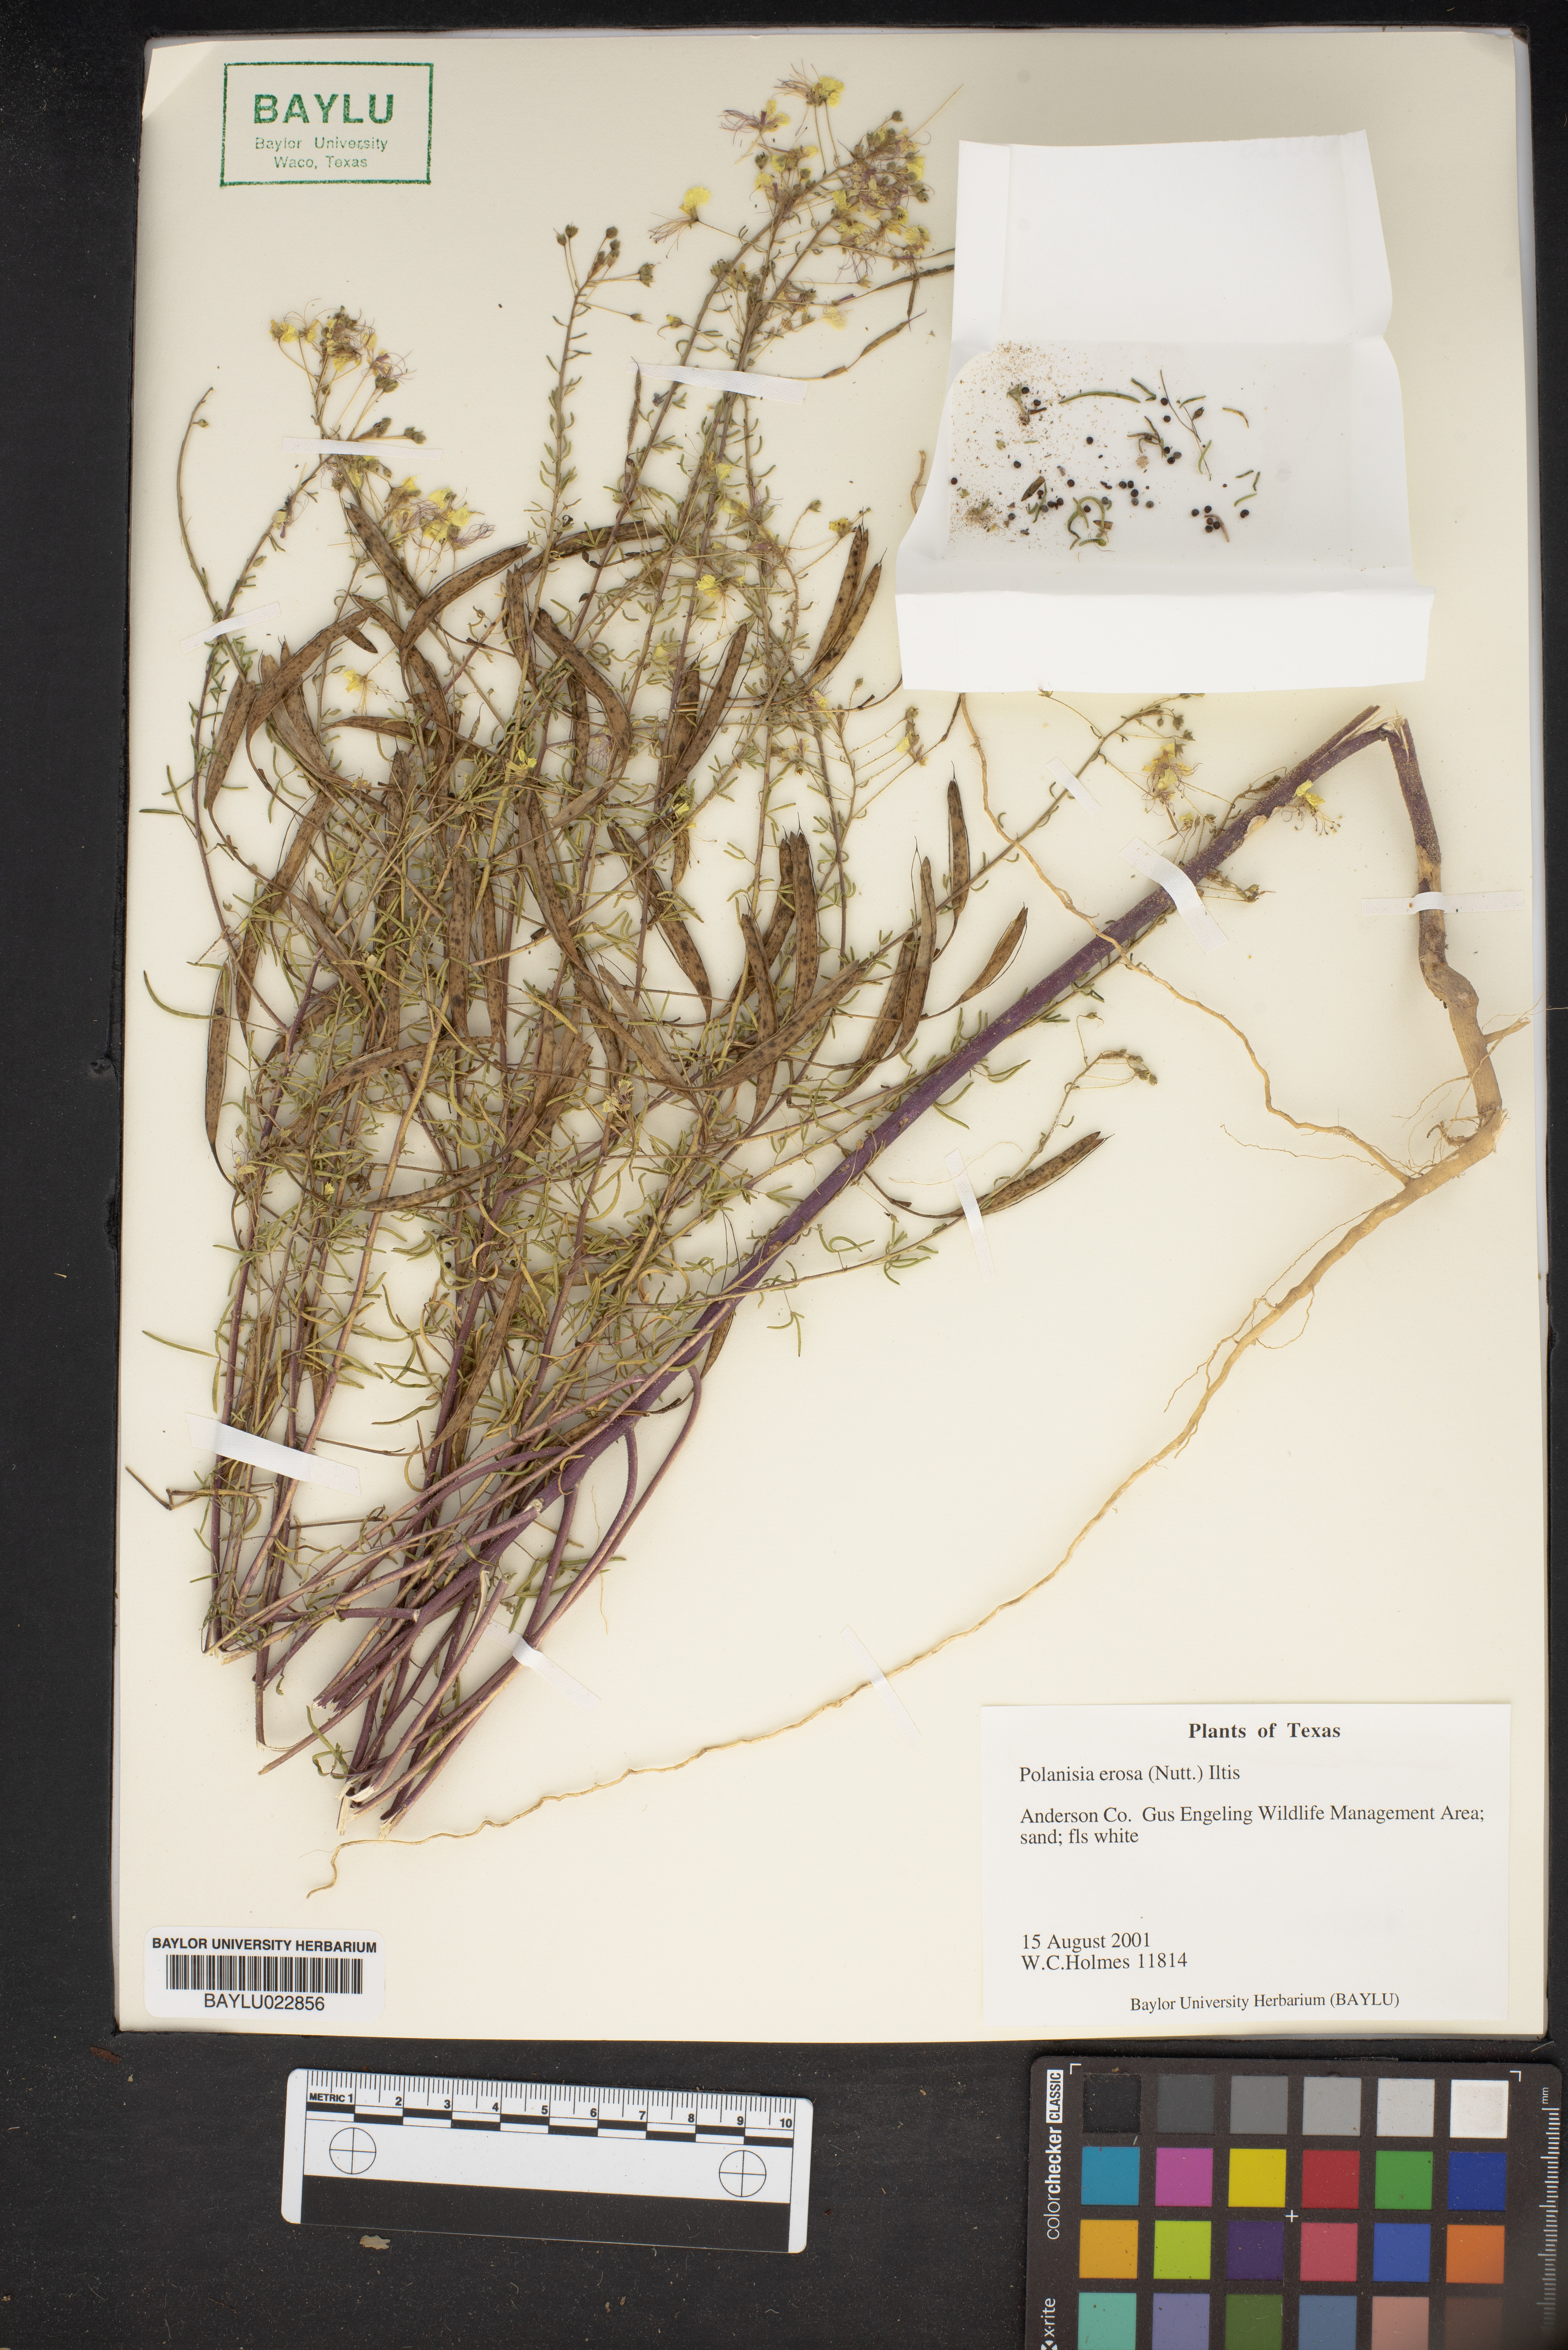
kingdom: Plantae
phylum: Tracheophyta
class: Magnoliopsida
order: Brassicales
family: Cleomaceae
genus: Polanisia
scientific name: Polanisia erosa
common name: Large clammyweed
